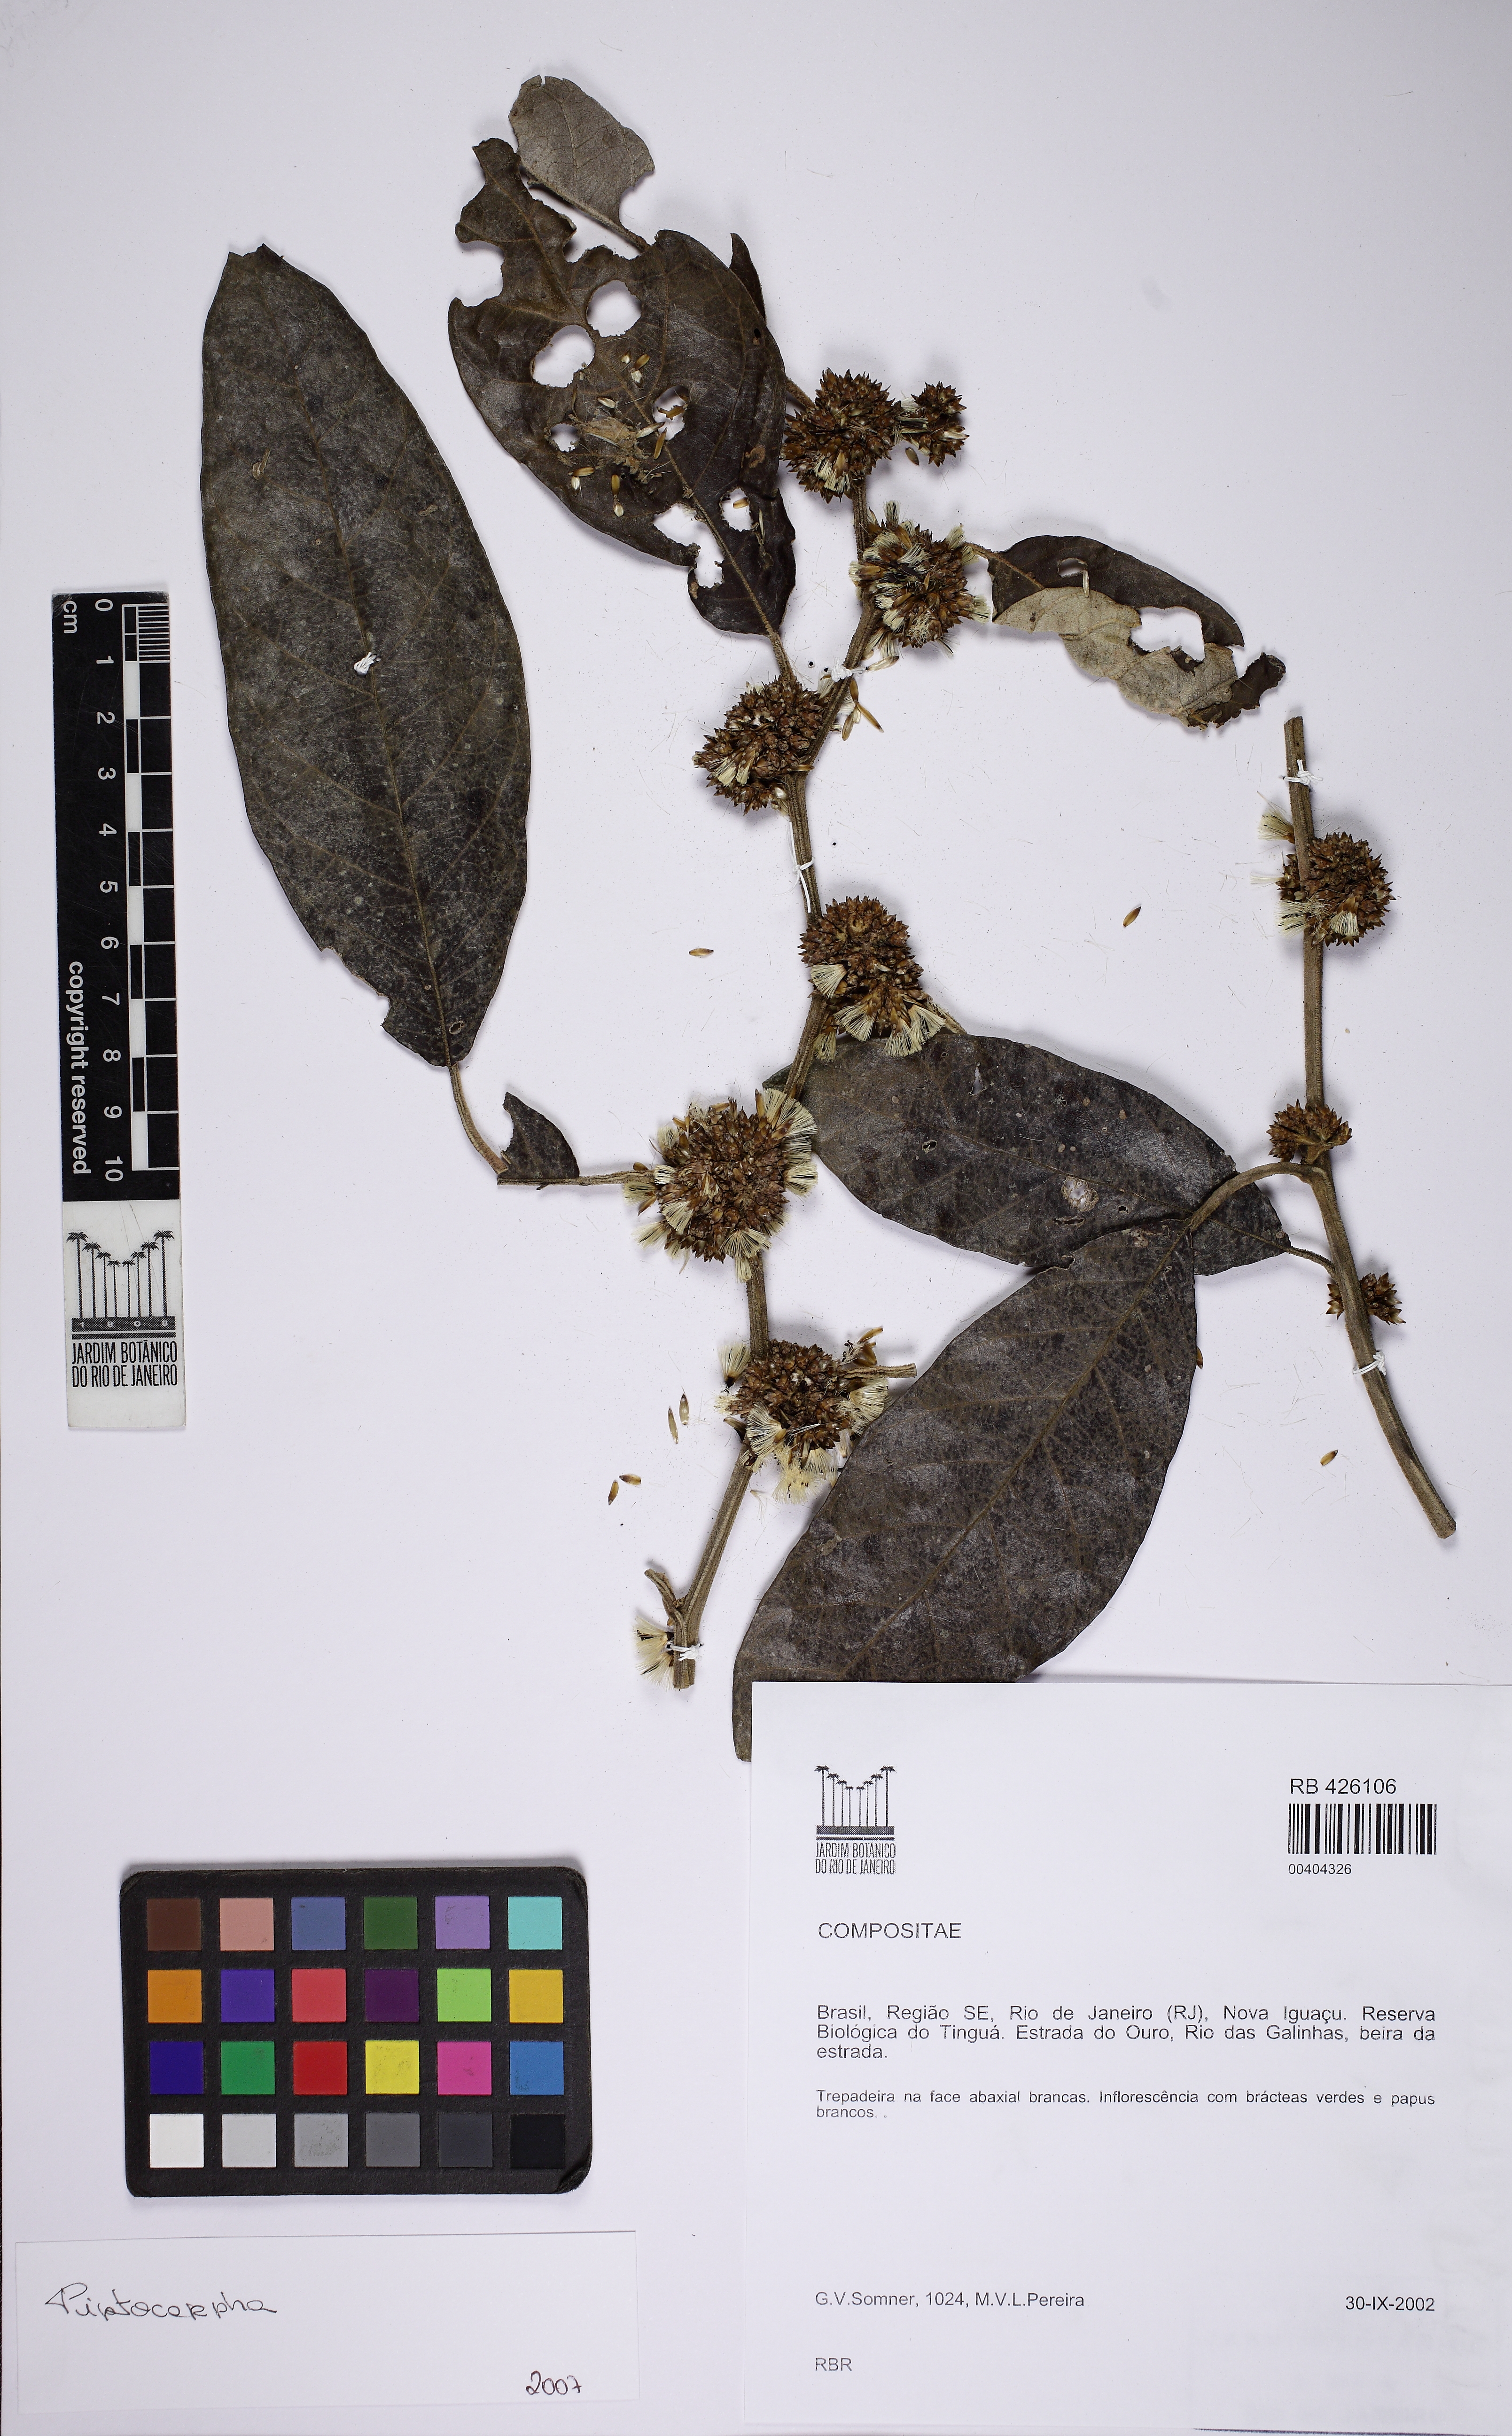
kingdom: Plantae
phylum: Tracheophyta
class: Magnoliopsida
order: Asterales
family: Asteraceae
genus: Piptocarpha
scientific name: Piptocarpha quadrangularis
